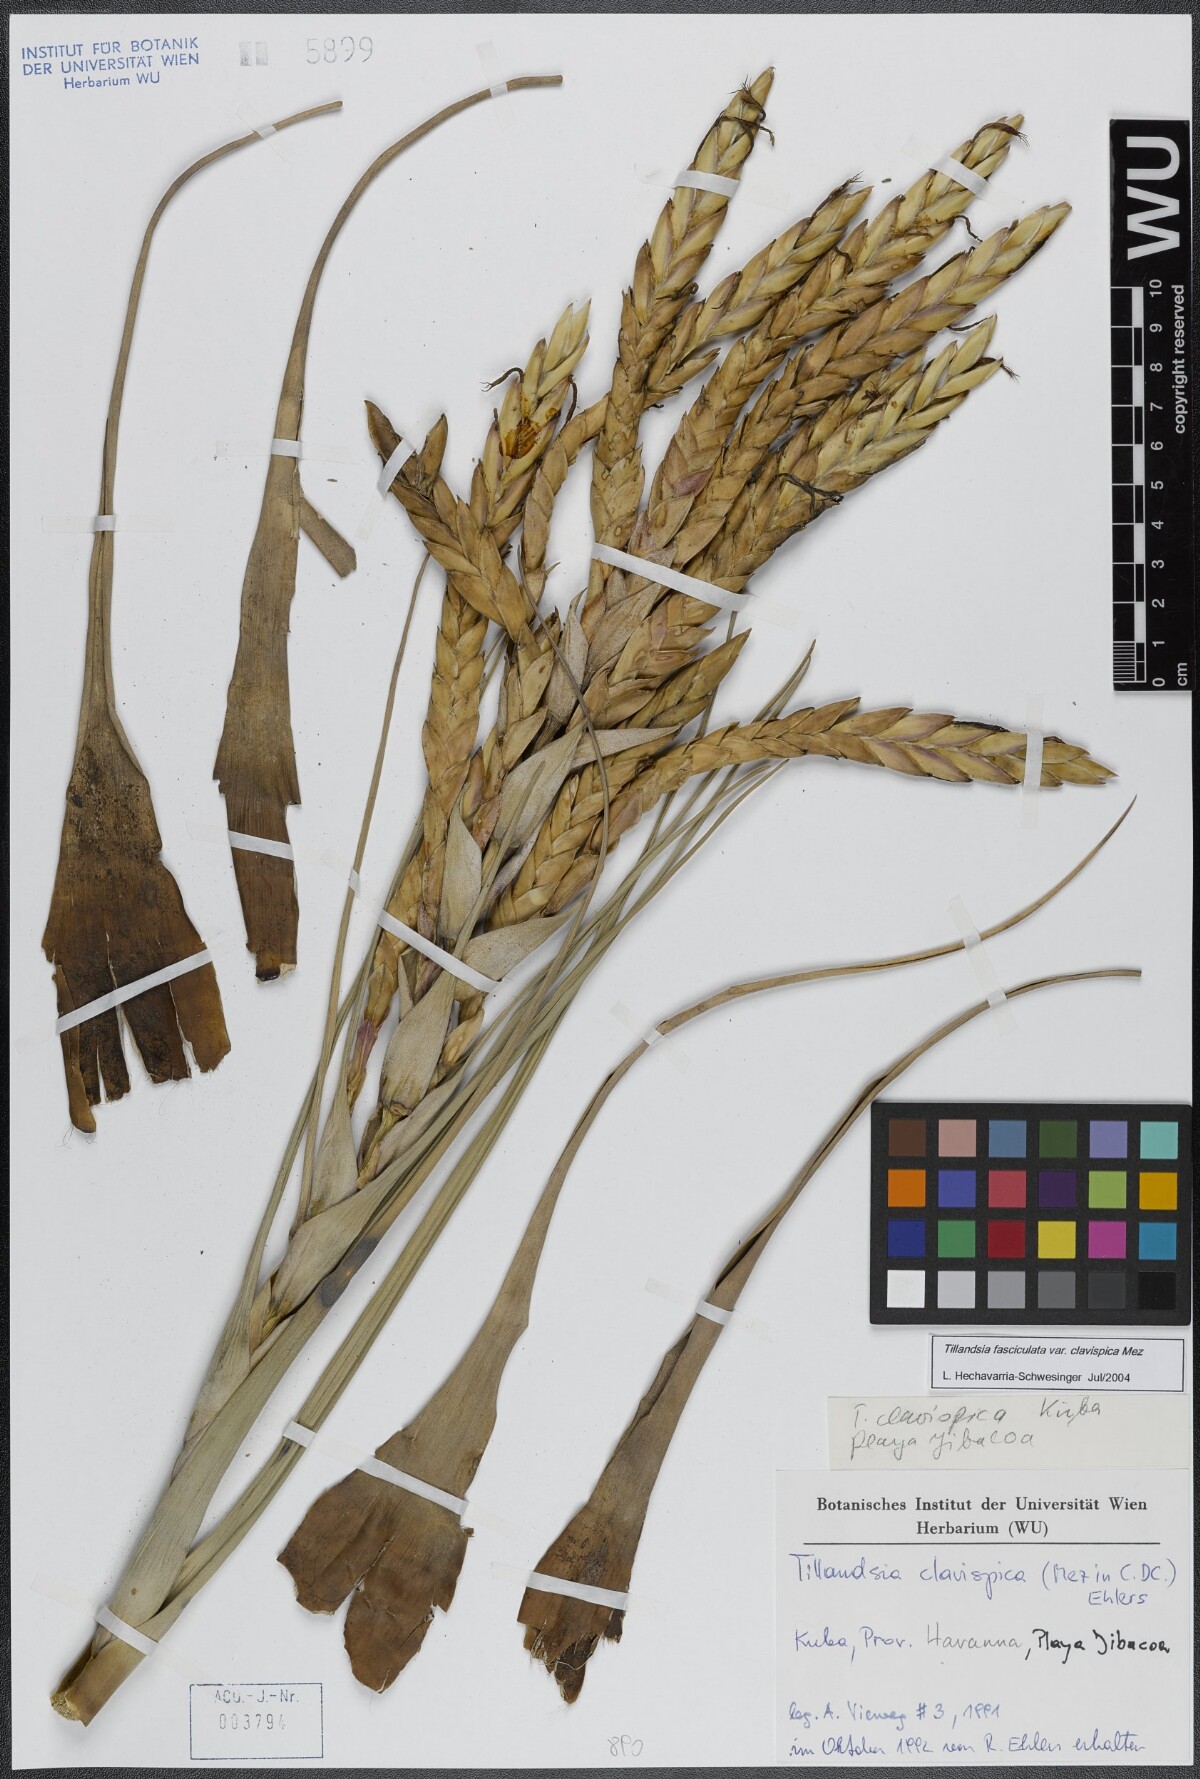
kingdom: Plantae
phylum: Tracheophyta
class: Liliopsida
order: Poales
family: Bromeliaceae
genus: Tillandsia
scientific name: Tillandsia fasciculata
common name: Giant airplant
